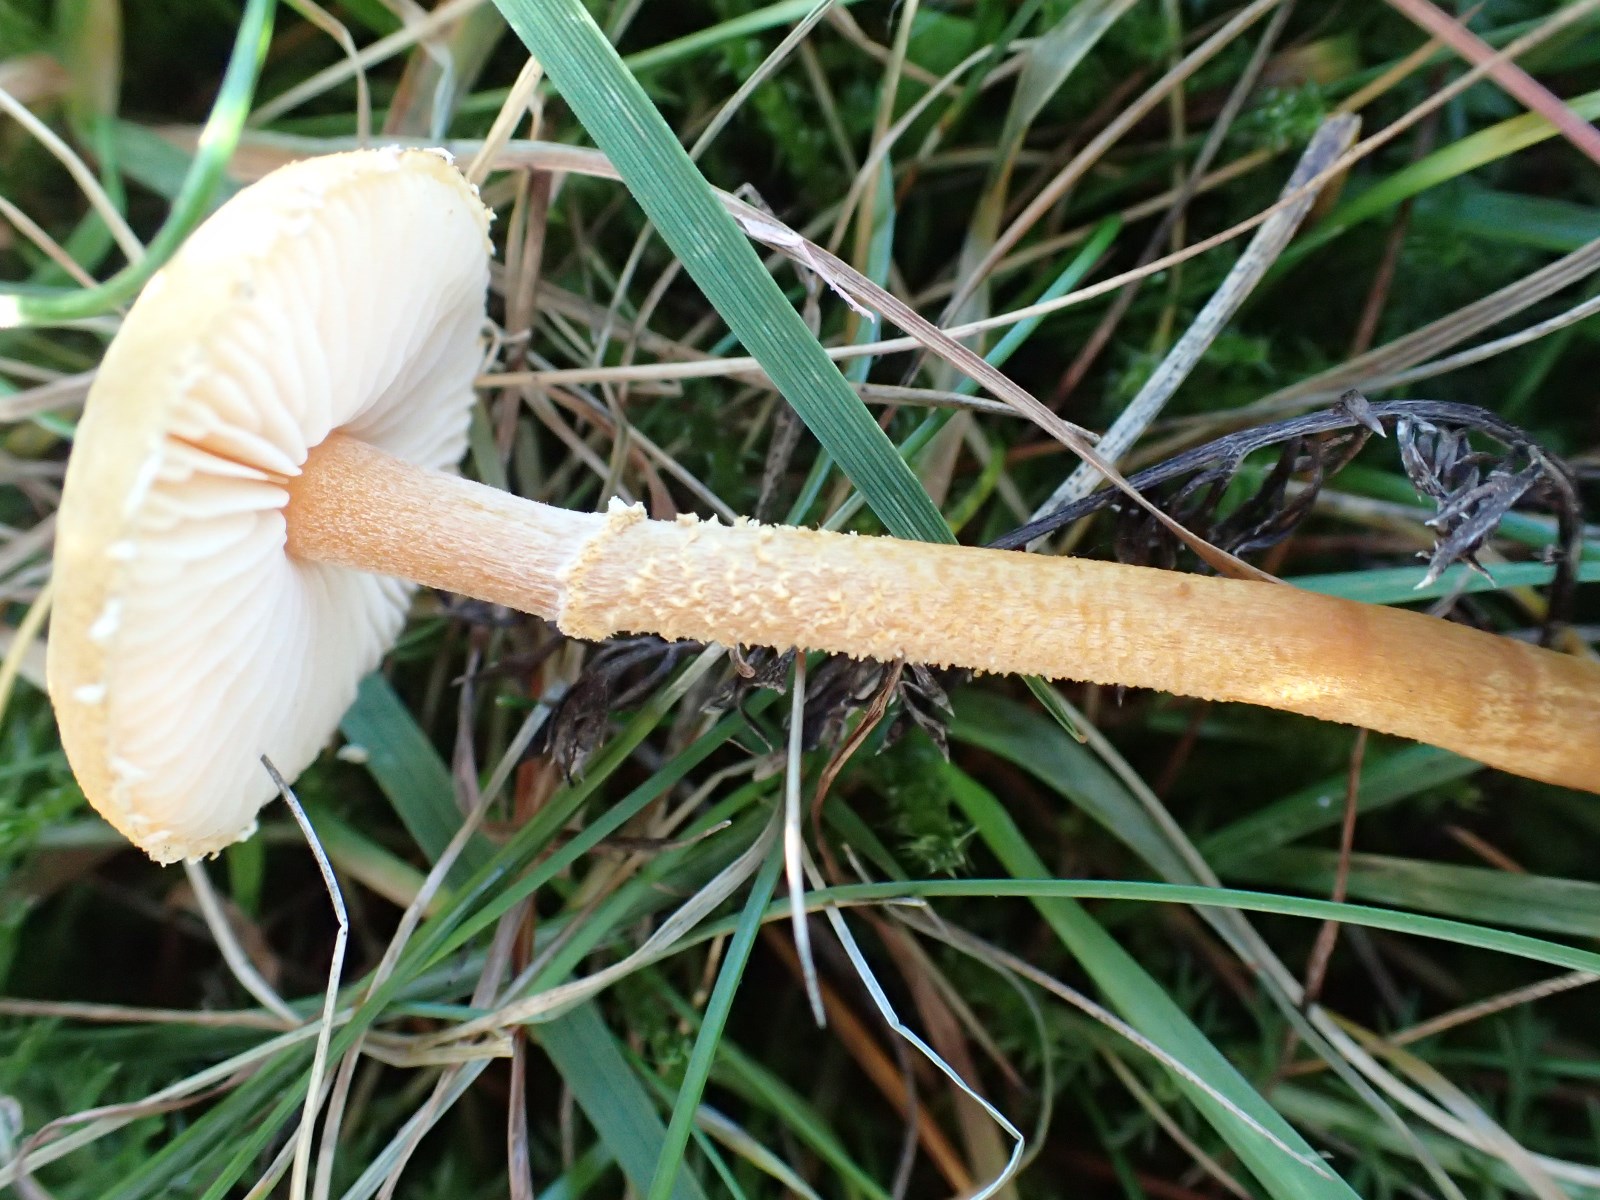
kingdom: Fungi
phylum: Basidiomycota
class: Agaricomycetes
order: Agaricales
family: Tricholomataceae
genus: Cystoderma
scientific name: Cystoderma amianthinum
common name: okkergul grynhat
